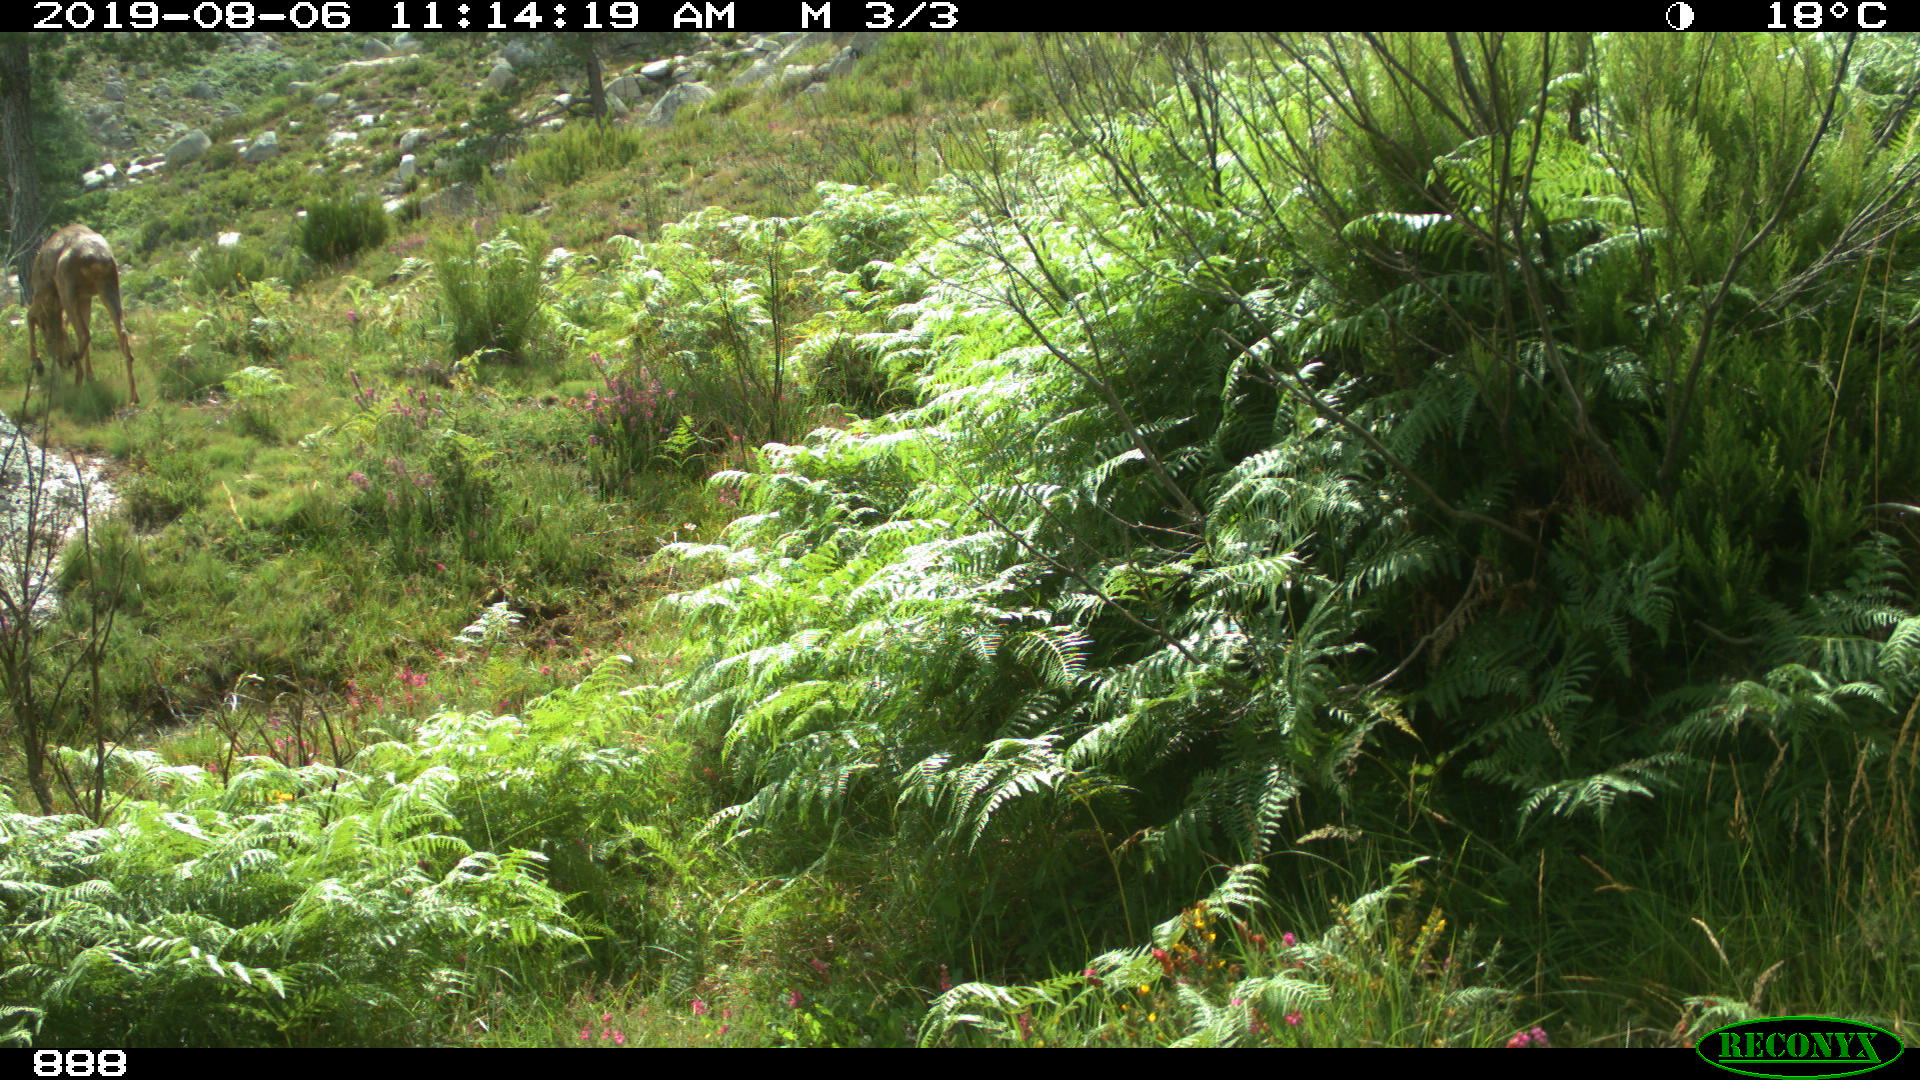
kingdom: Animalia
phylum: Chordata
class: Mammalia
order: Artiodactyla
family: Cervidae
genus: Capreolus
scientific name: Capreolus capreolus
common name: Western roe deer
